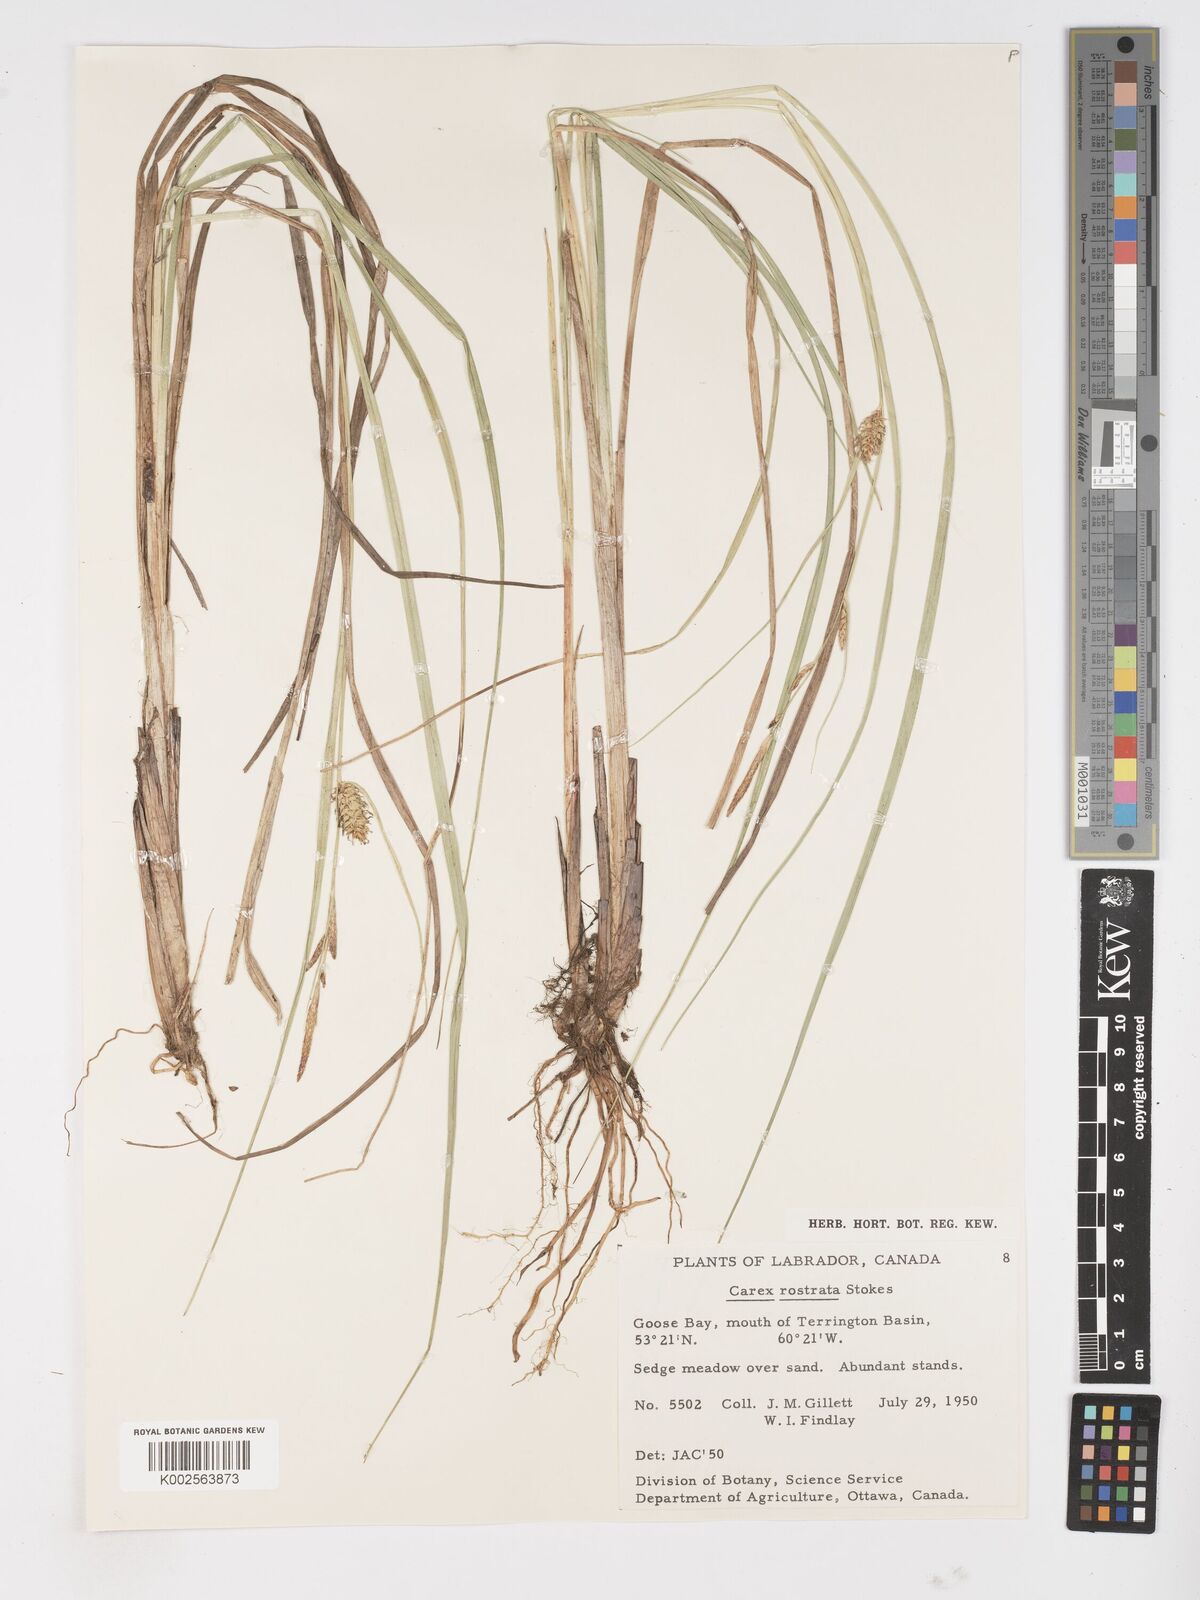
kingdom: Plantae
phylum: Tracheophyta
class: Liliopsida
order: Poales
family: Cyperaceae
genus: Carex
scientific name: Carex rostrata
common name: Bottle sedge
